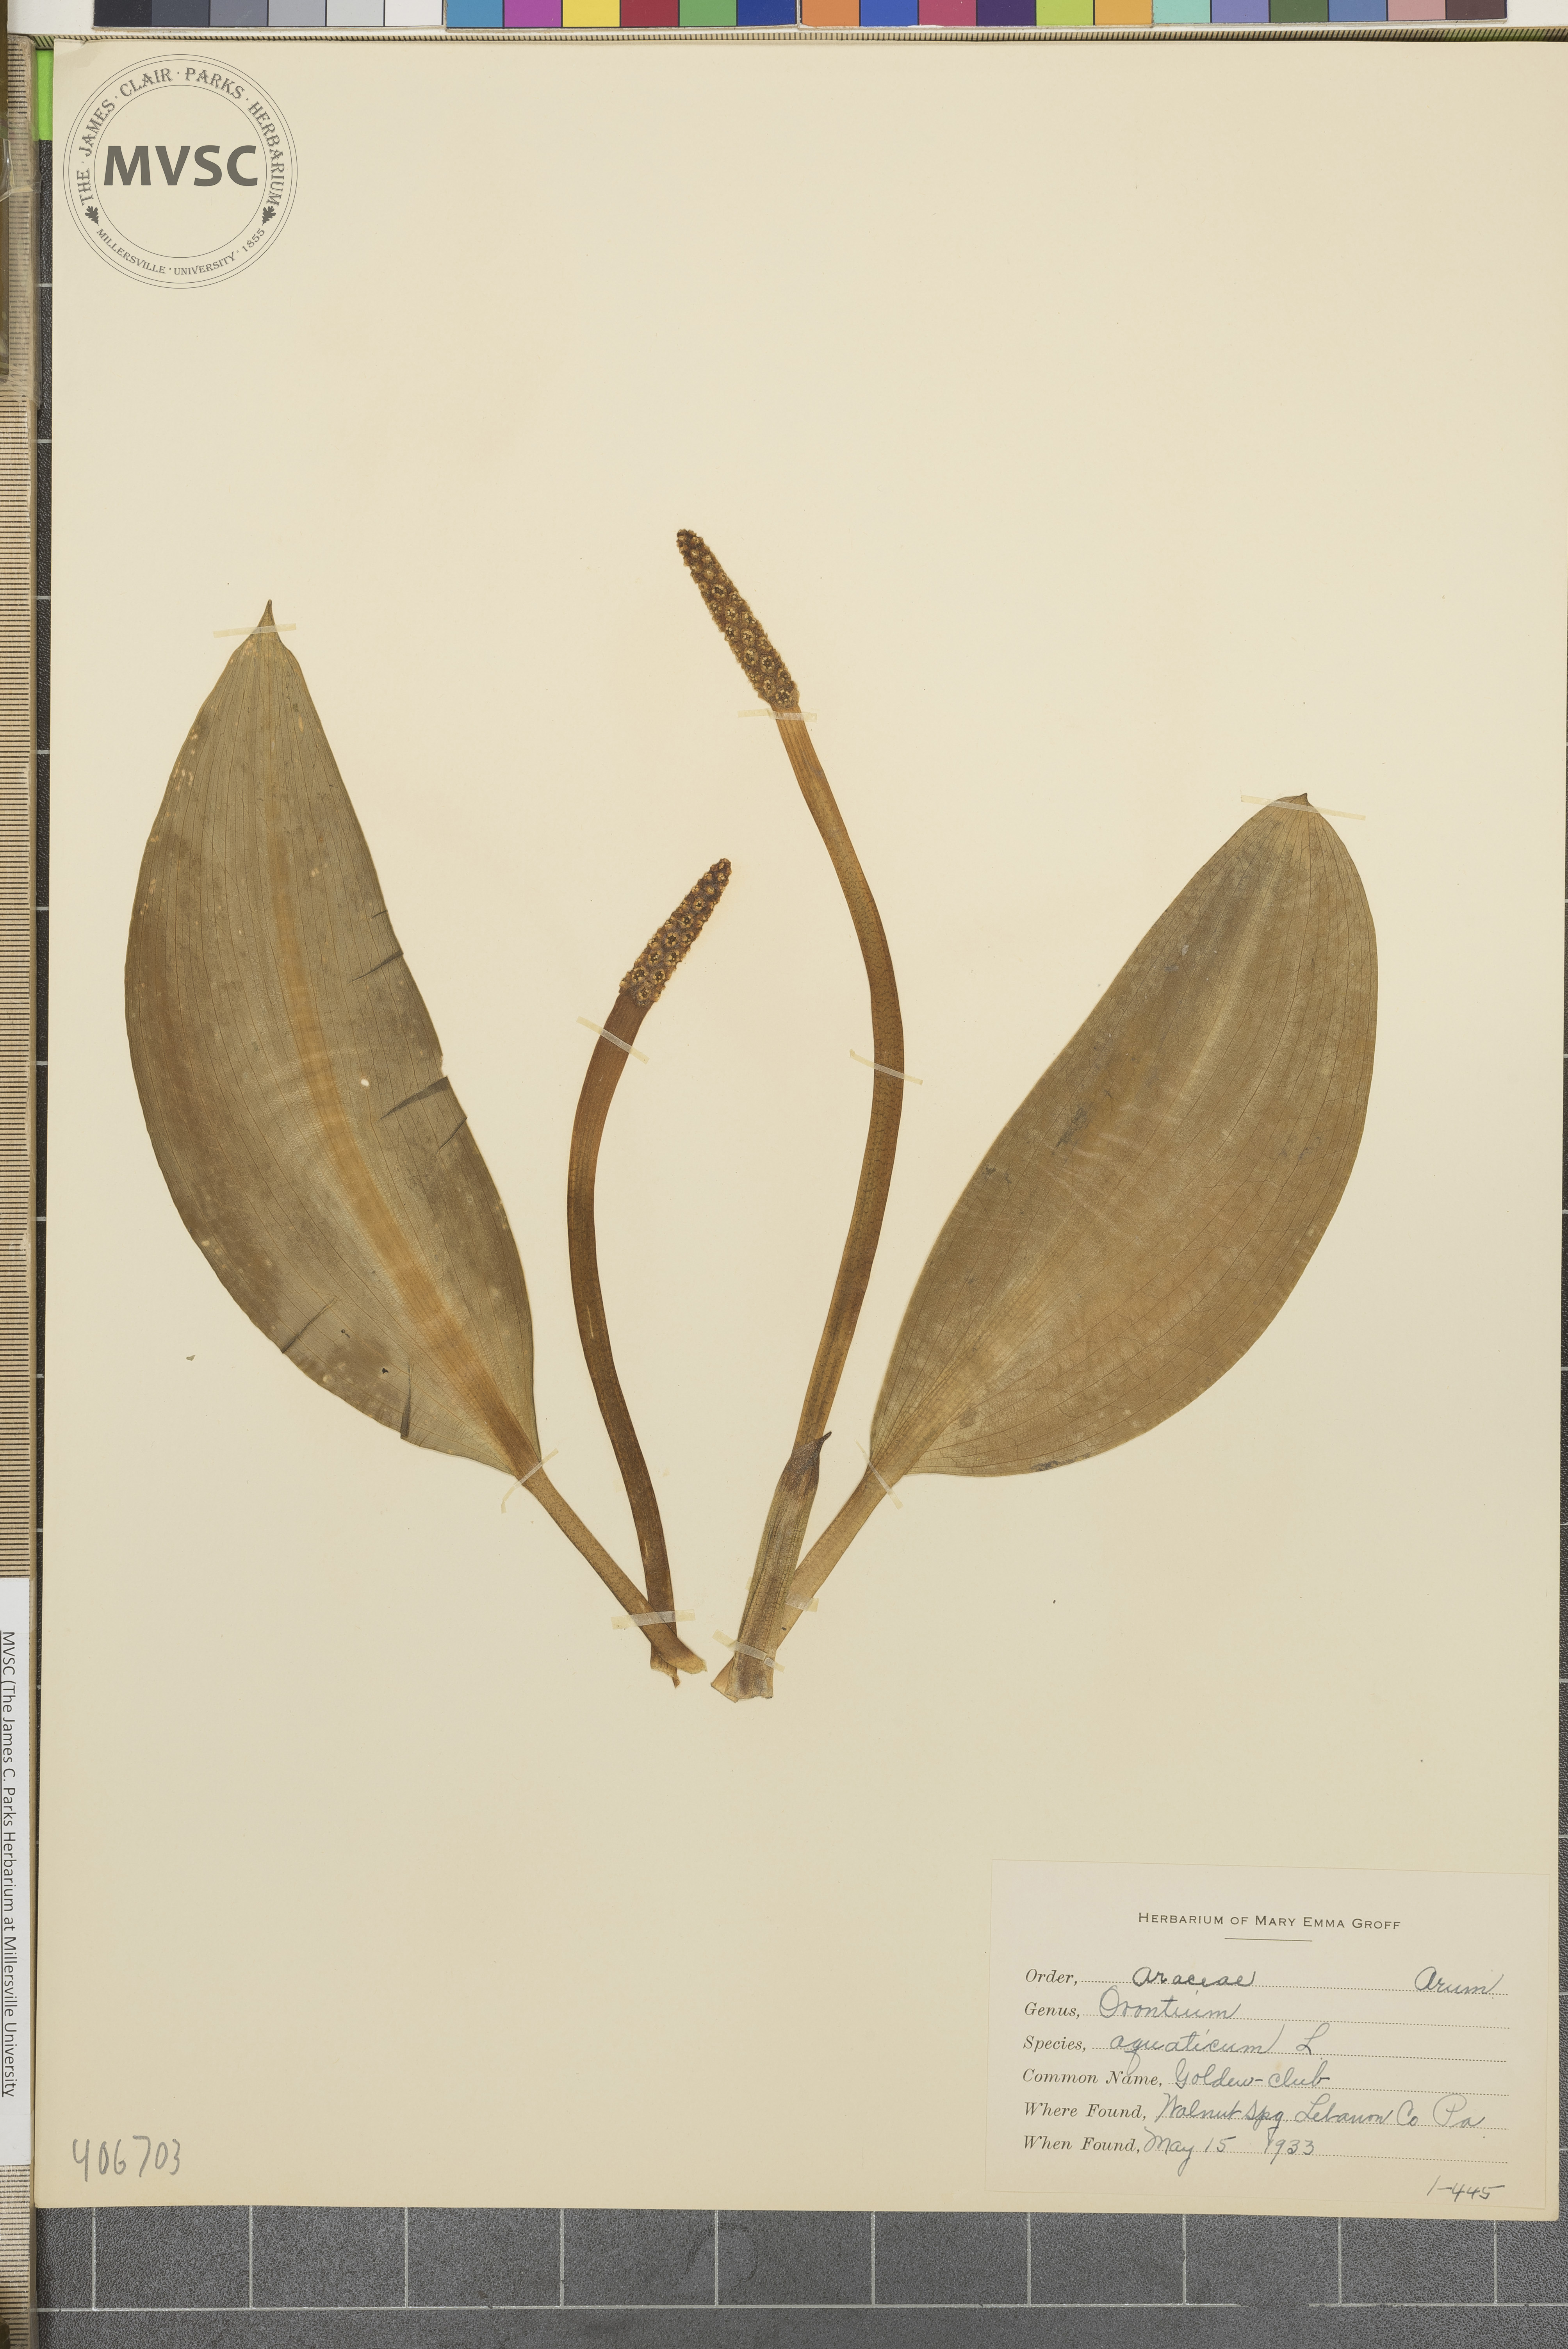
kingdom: Plantae
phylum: Tracheophyta
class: Liliopsida
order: Alismatales
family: Araceae
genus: Orontium
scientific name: Orontium aquaticum
